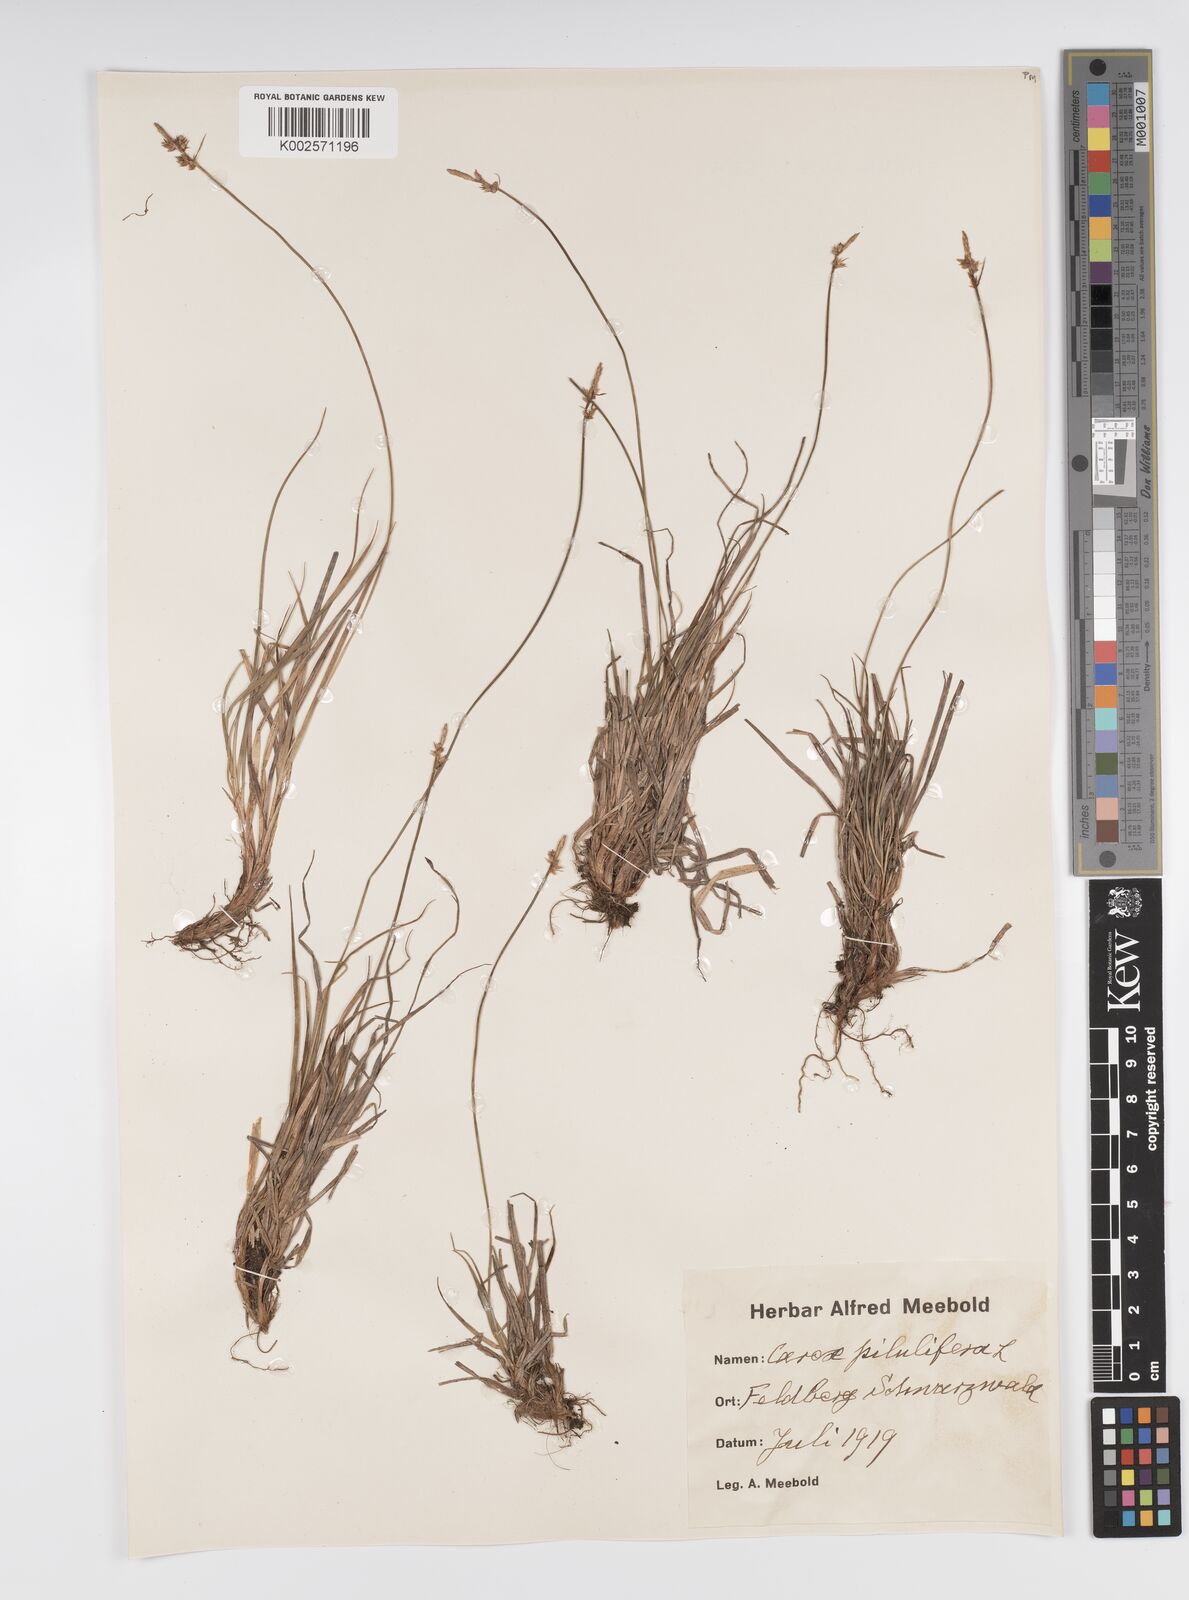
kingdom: Plantae
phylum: Tracheophyta
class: Liliopsida
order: Poales
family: Cyperaceae
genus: Carex
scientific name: Carex pilulifera
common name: Pill sedge
